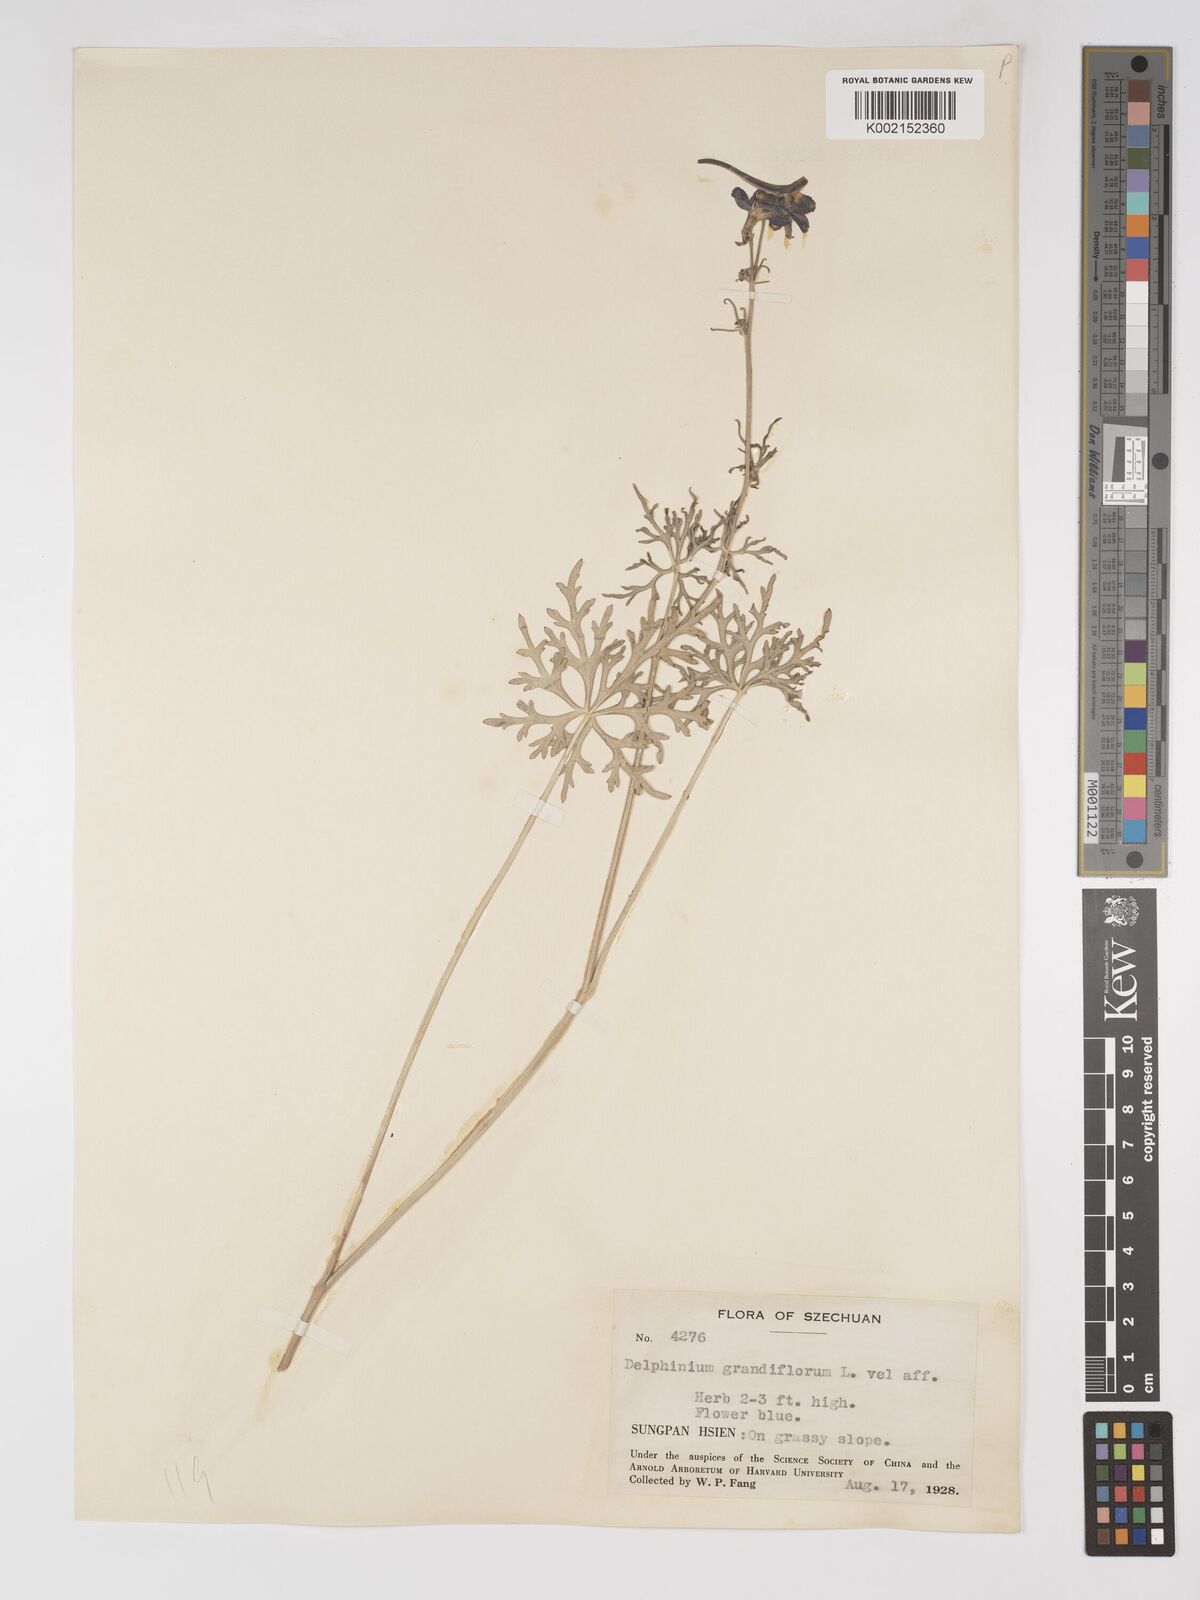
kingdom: Plantae
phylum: Tracheophyta
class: Magnoliopsida
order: Ranunculales
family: Ranunculaceae
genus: Delphinium
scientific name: Delphinium tatsienense
